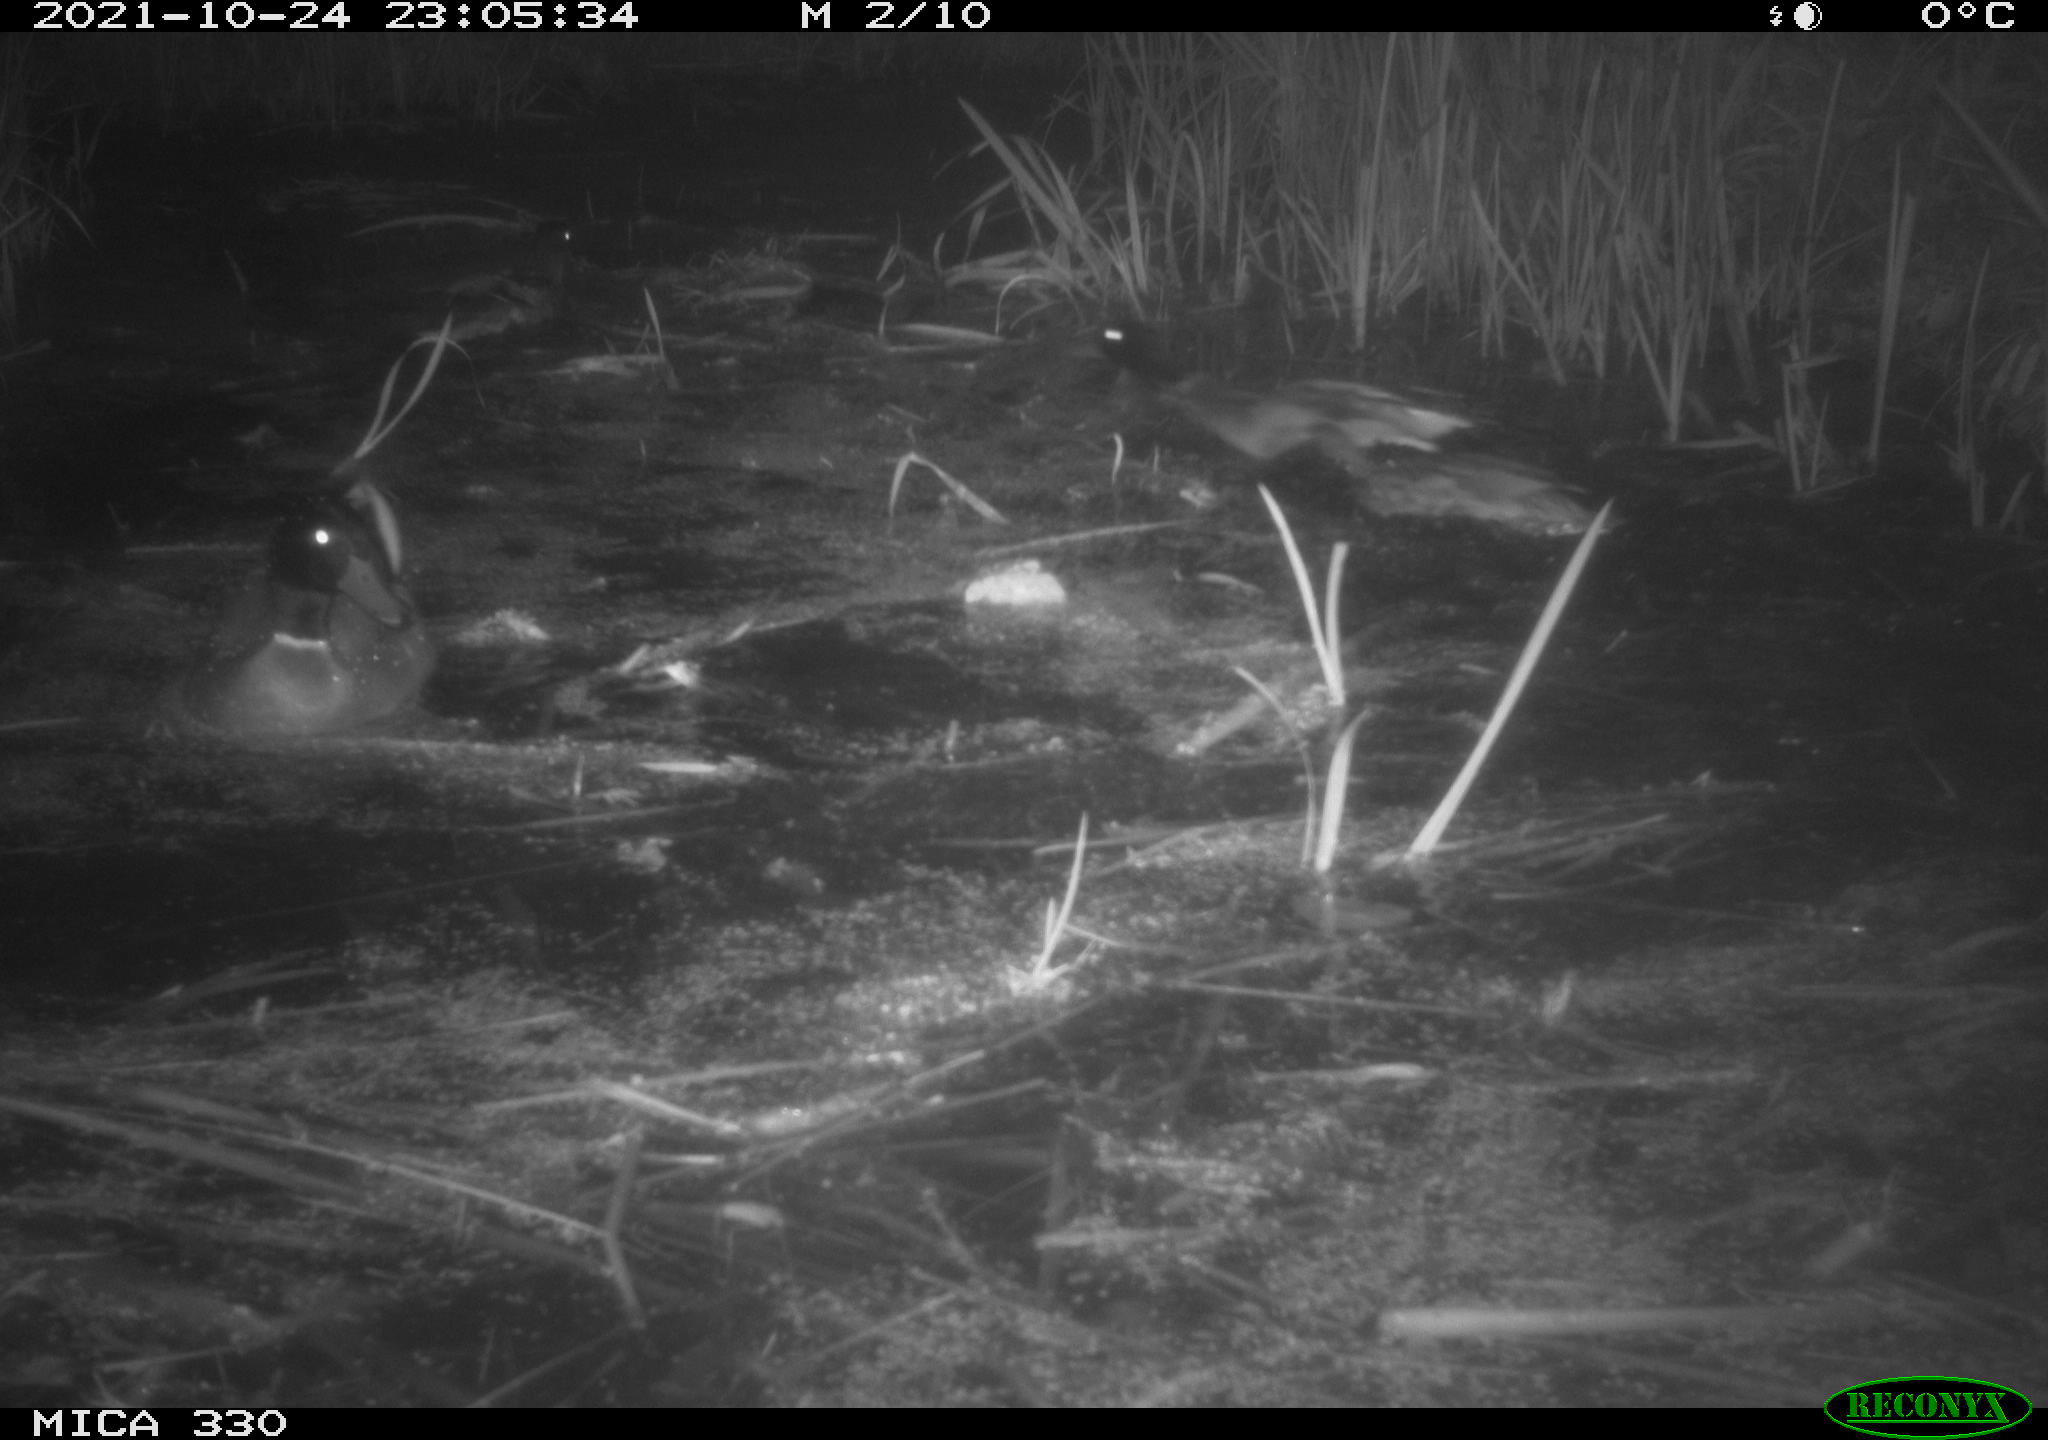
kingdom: Animalia
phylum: Chordata
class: Aves
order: Anseriformes
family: Anatidae
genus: Anas
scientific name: Anas platyrhynchos
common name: Mallard
